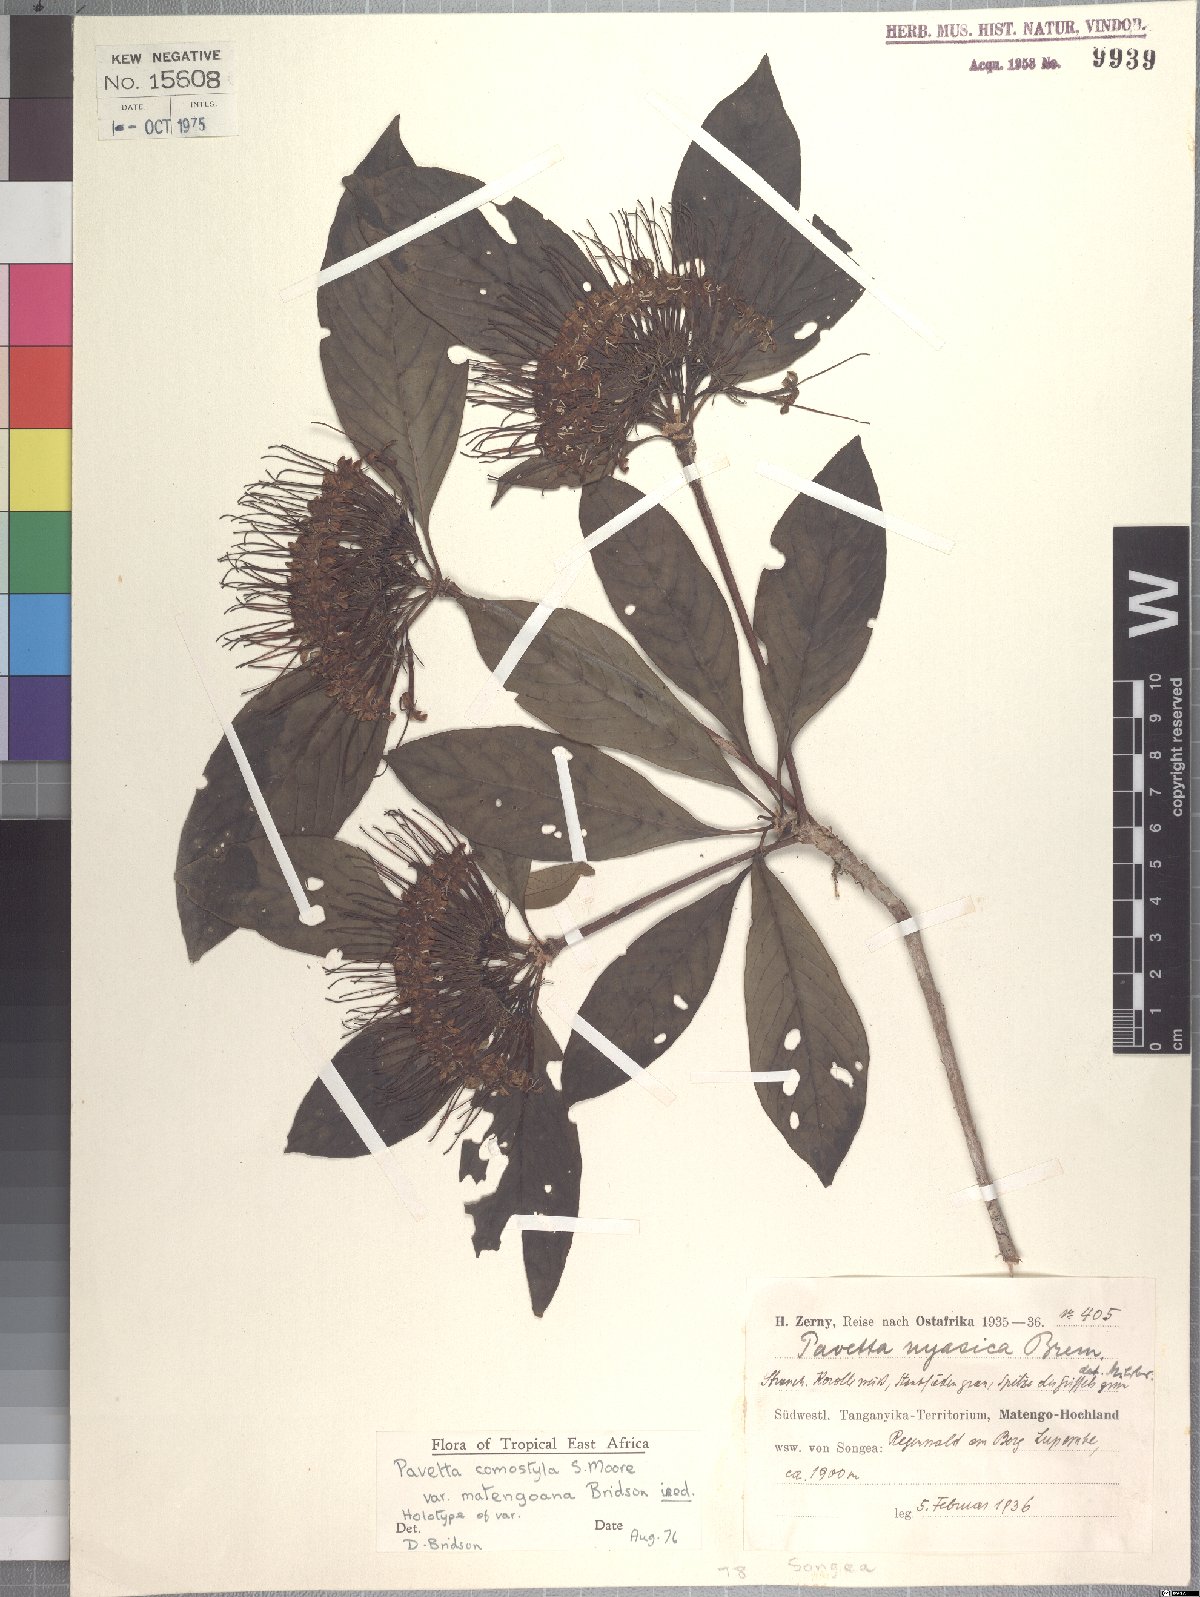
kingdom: Plantae
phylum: Tracheophyta
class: Magnoliopsida
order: Gentianales
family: Rubiaceae
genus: Pavetta
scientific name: Pavetta comostyla
